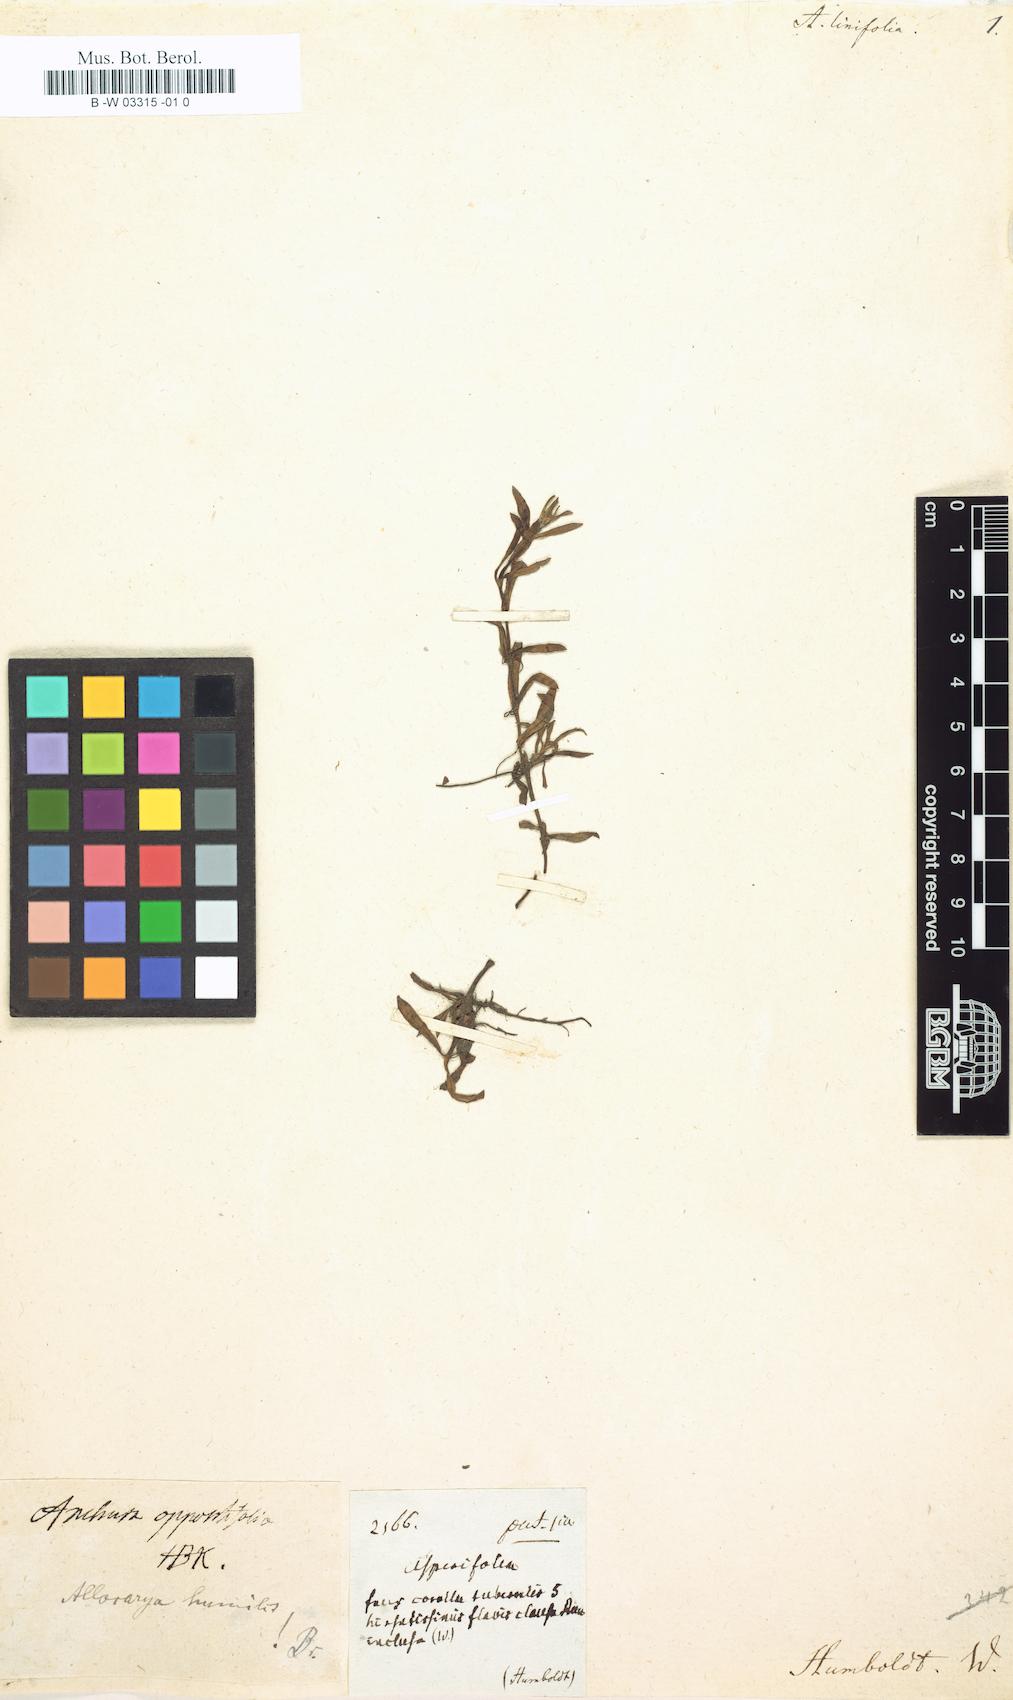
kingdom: Plantae
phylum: Tracheophyta
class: Magnoliopsida
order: Boraginales
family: Boraginaceae
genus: Plagiobothrys
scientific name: Plagiobothrys linifolius
